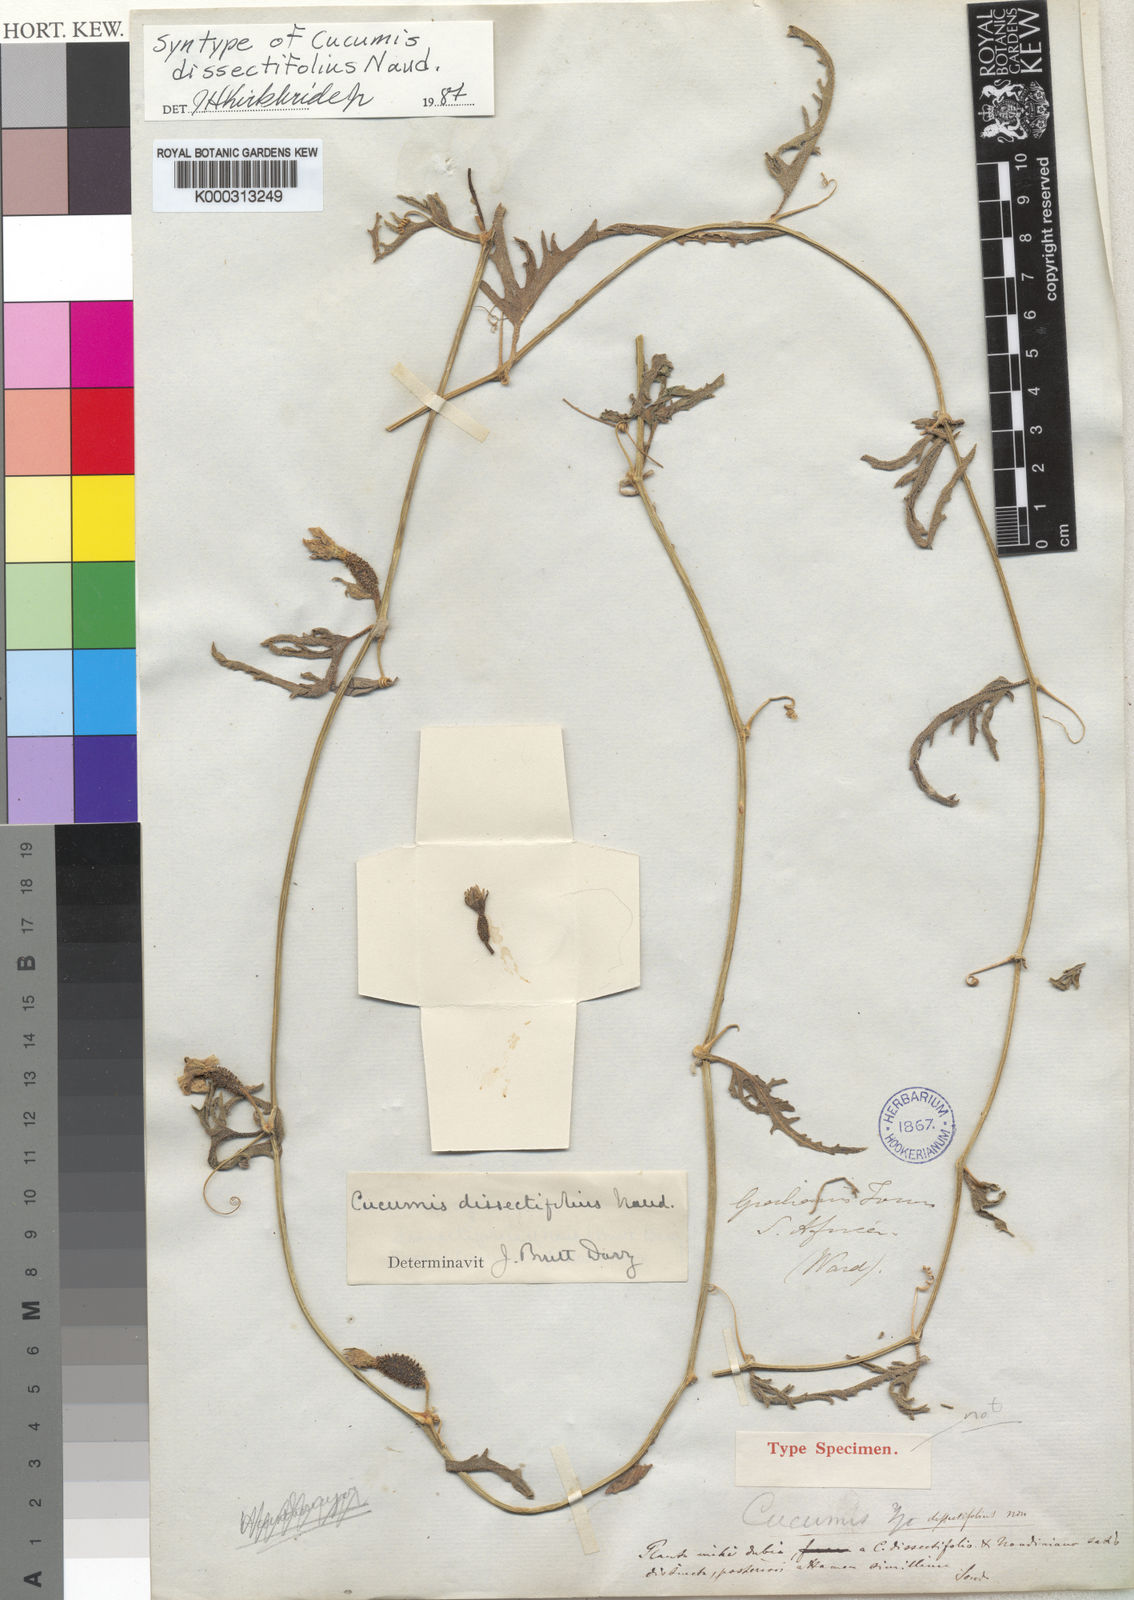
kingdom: Plantae
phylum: Tracheophyta
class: Magnoliopsida
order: Cucurbitales
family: Cucurbitaceae
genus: Cucumis
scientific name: Cucumis kalahariensis
